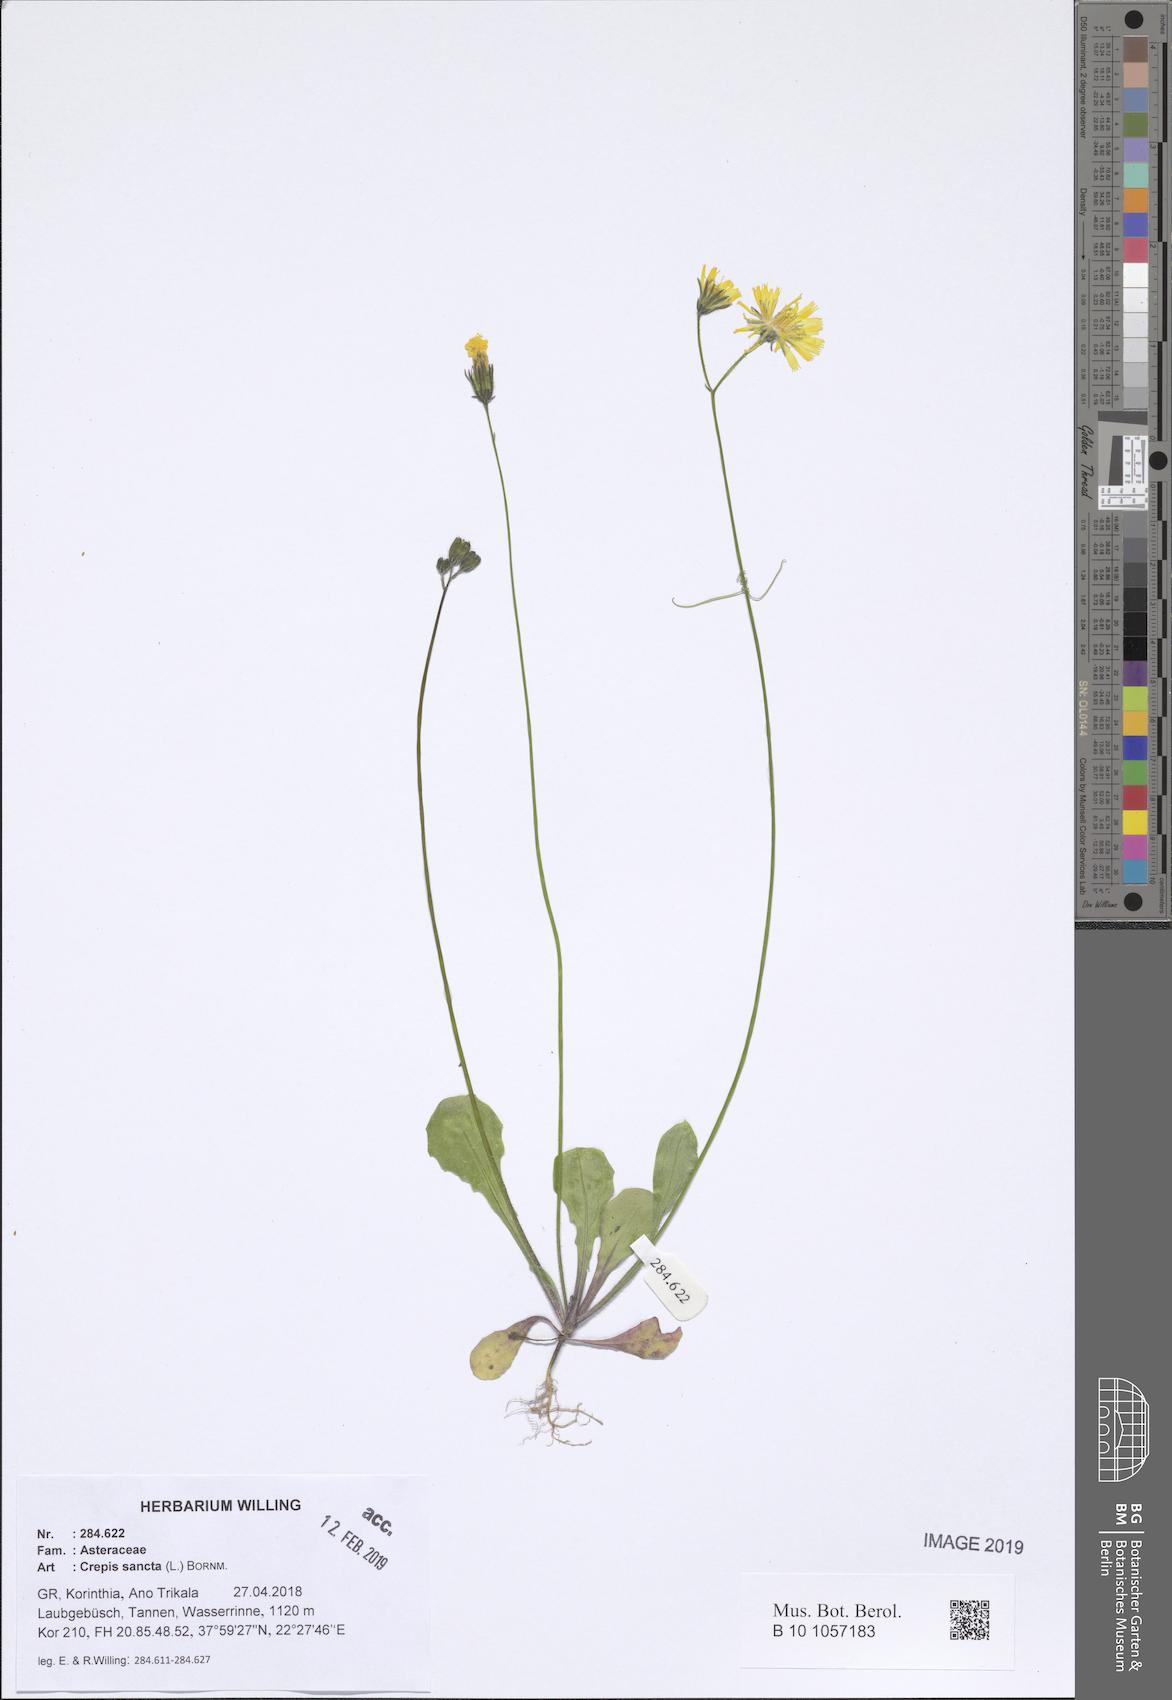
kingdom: Plantae
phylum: Tracheophyta
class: Liliopsida
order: Asparagales
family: Asphodelaceae
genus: Asphodelus
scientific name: Asphodelus fistulosus
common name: Onionweed
